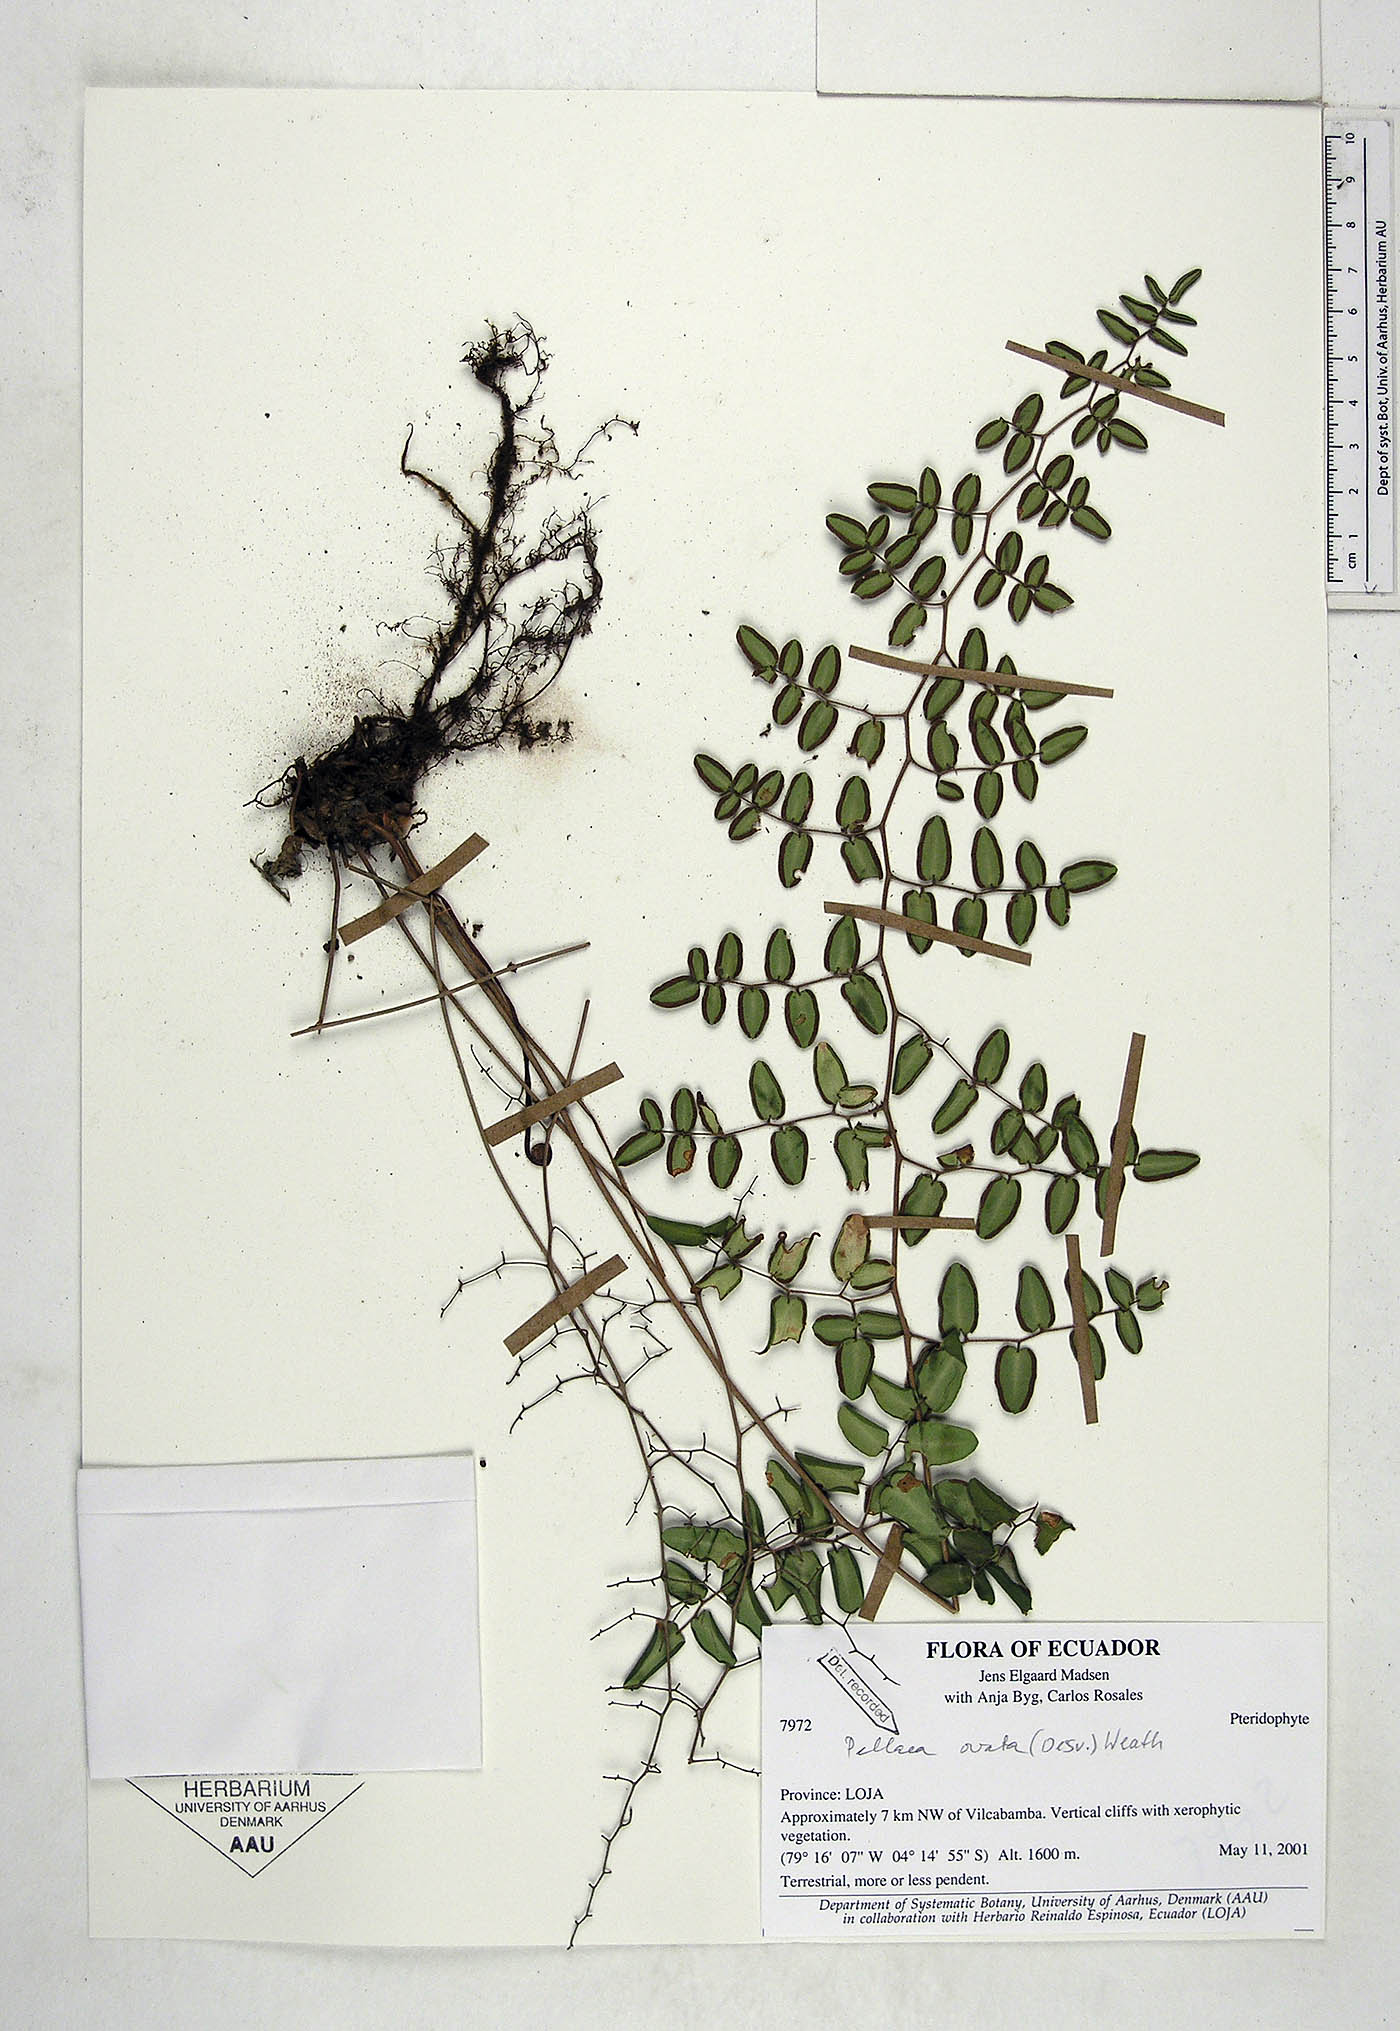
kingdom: Plantae
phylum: Tracheophyta
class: Polypodiopsida
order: Polypodiales
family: Pteridaceae
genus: Pellaea
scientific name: Pellaea ovata
